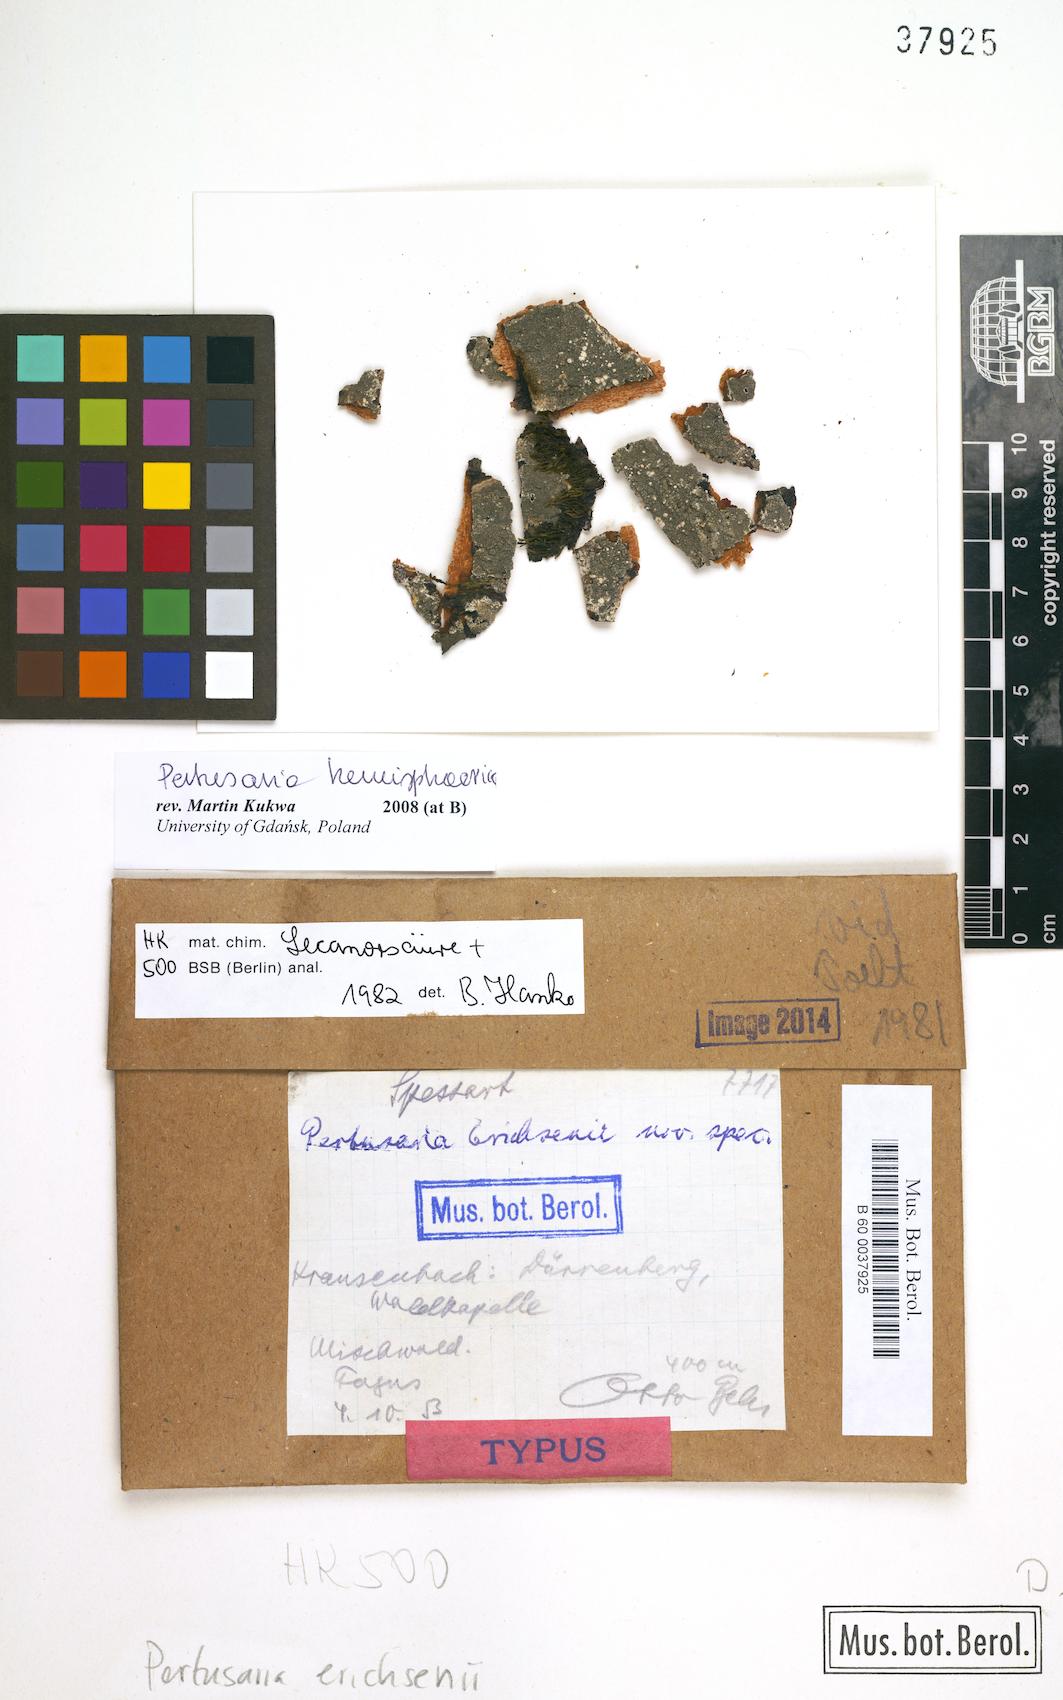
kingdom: Fungi
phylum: Ascomycota
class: Lecanoromycetes
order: Pertusariales
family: Pertusariaceae
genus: Pertusaria
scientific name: Pertusaria
